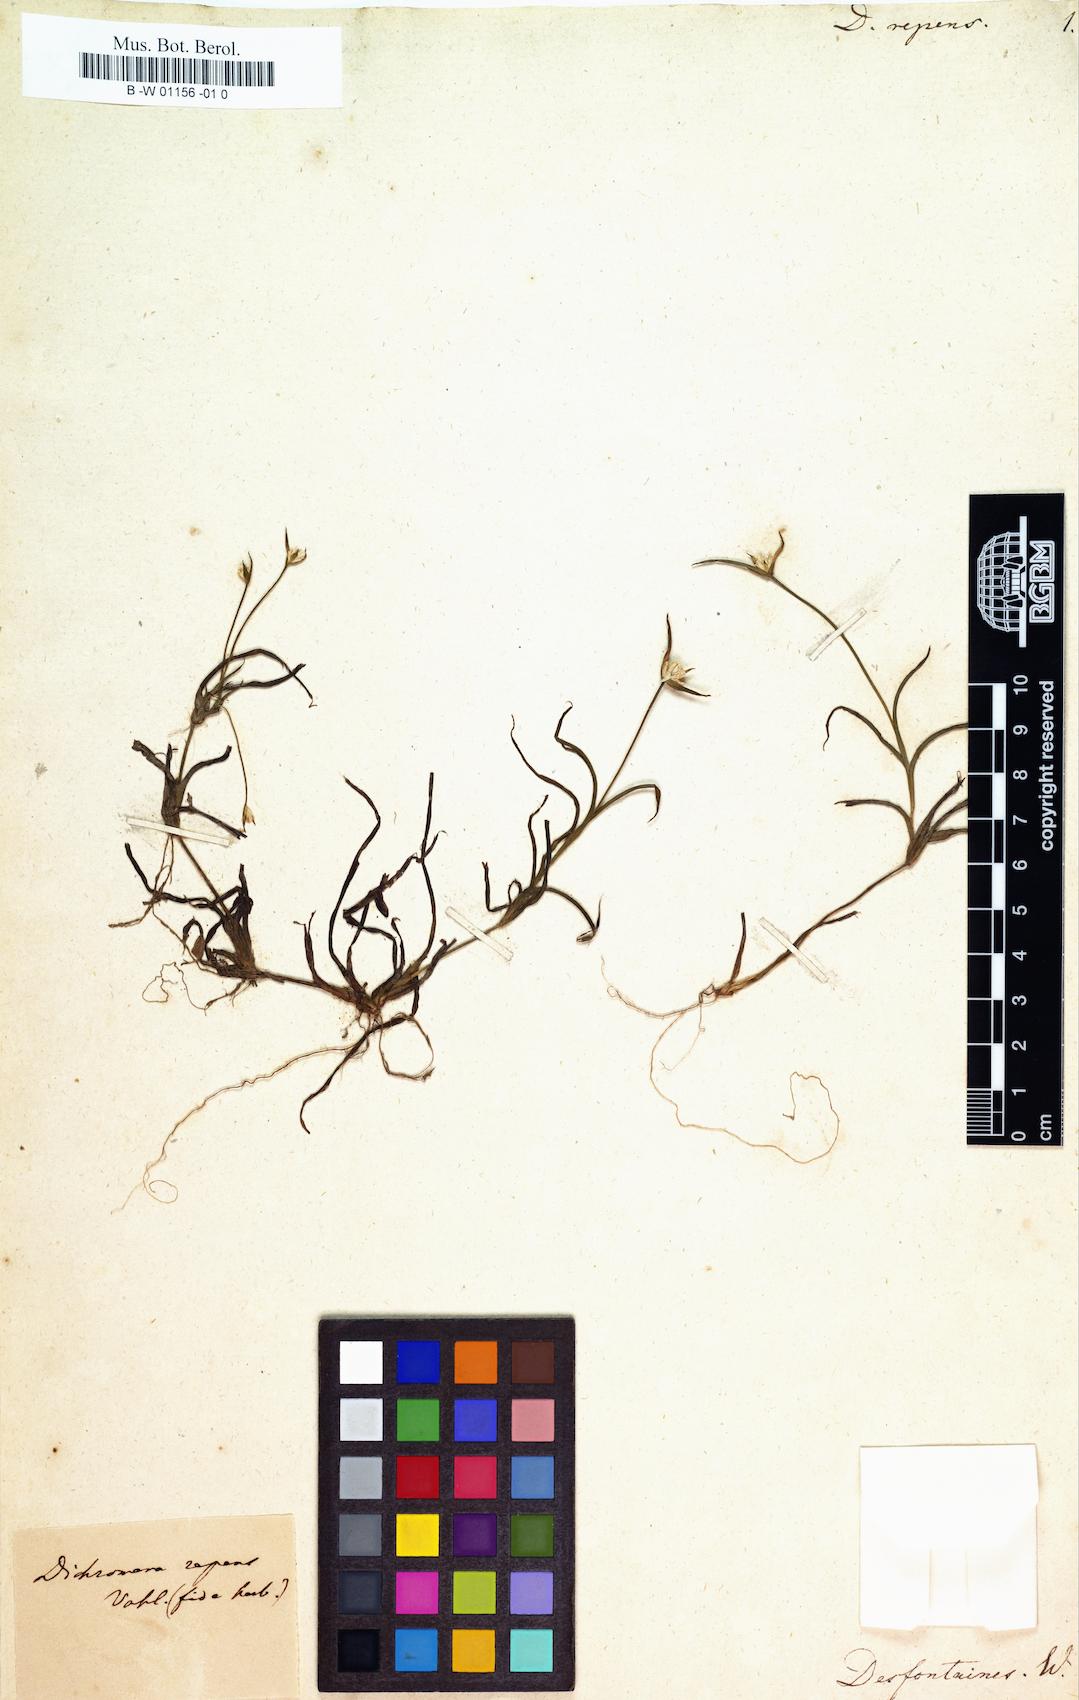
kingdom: Plantae
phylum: Tracheophyta
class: Liliopsida
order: Poales
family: Cyperaceae
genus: Rhynchospora
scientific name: Rhynchospora reptans
